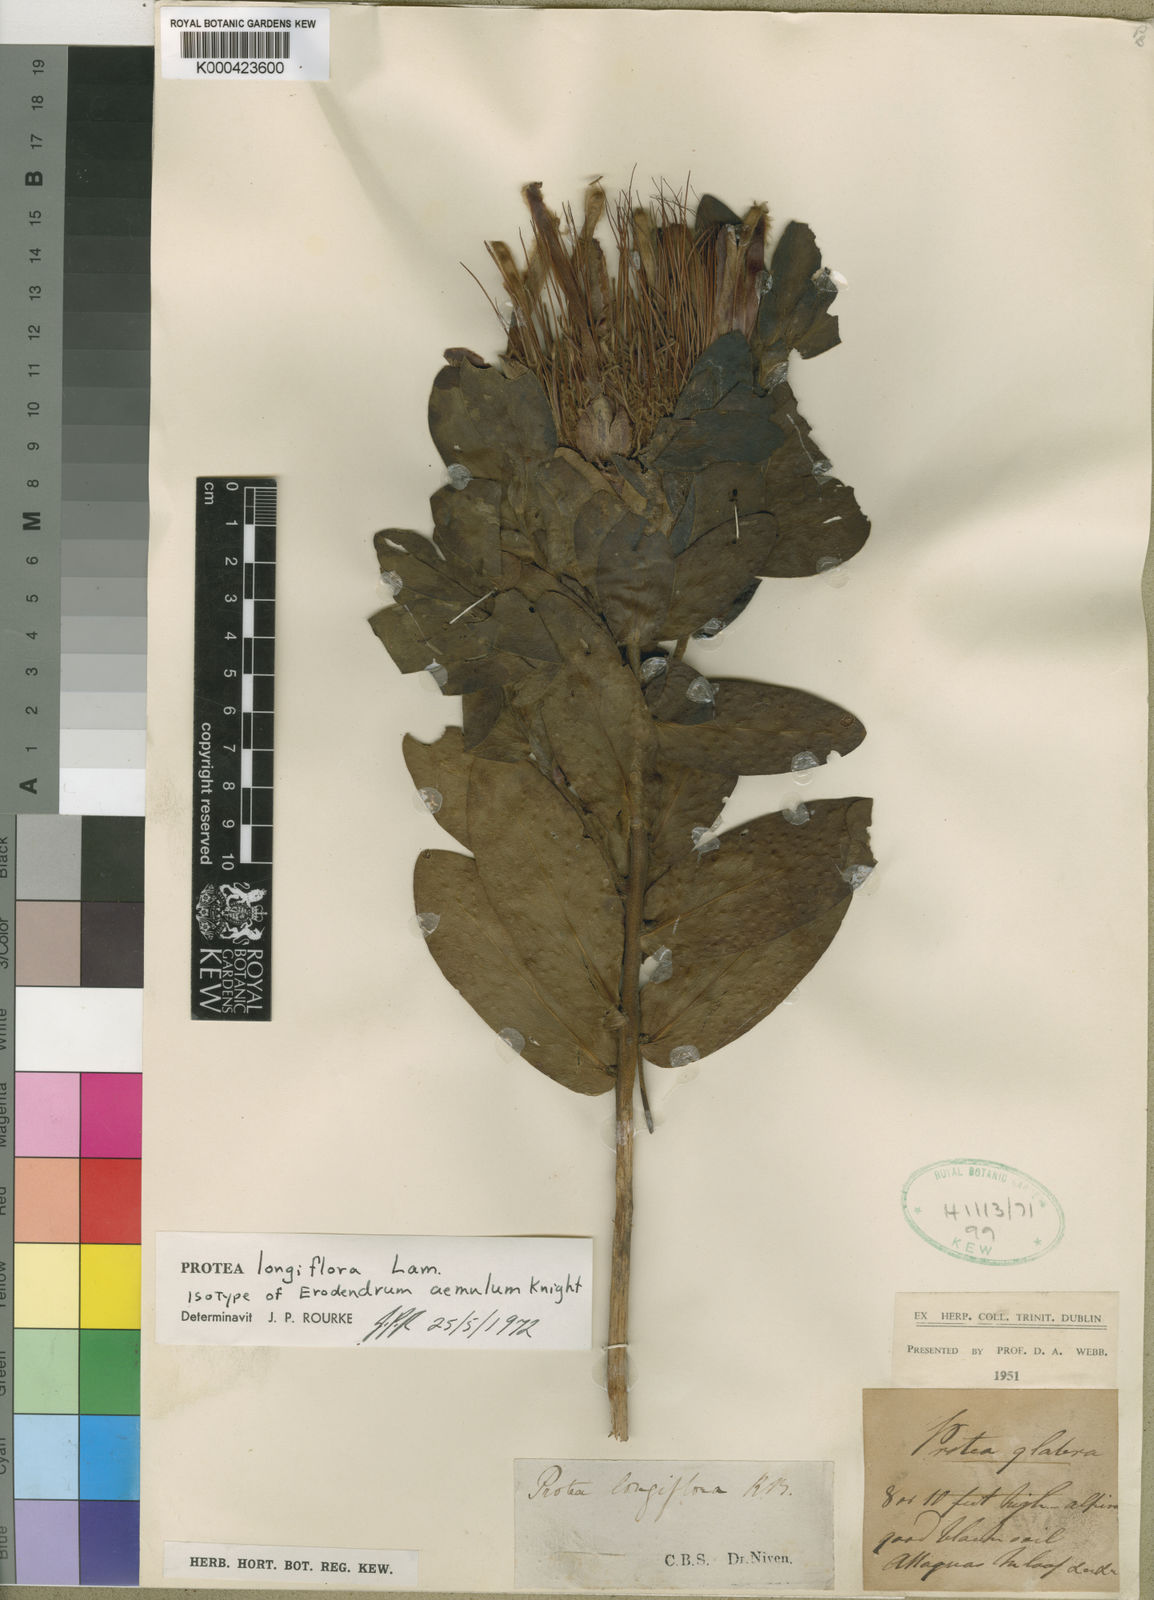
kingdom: Plantae
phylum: Tracheophyta
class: Magnoliopsida
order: Proteales
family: Proteaceae
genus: Protea
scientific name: Protea aurea
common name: Shuttlecock sugarbush
